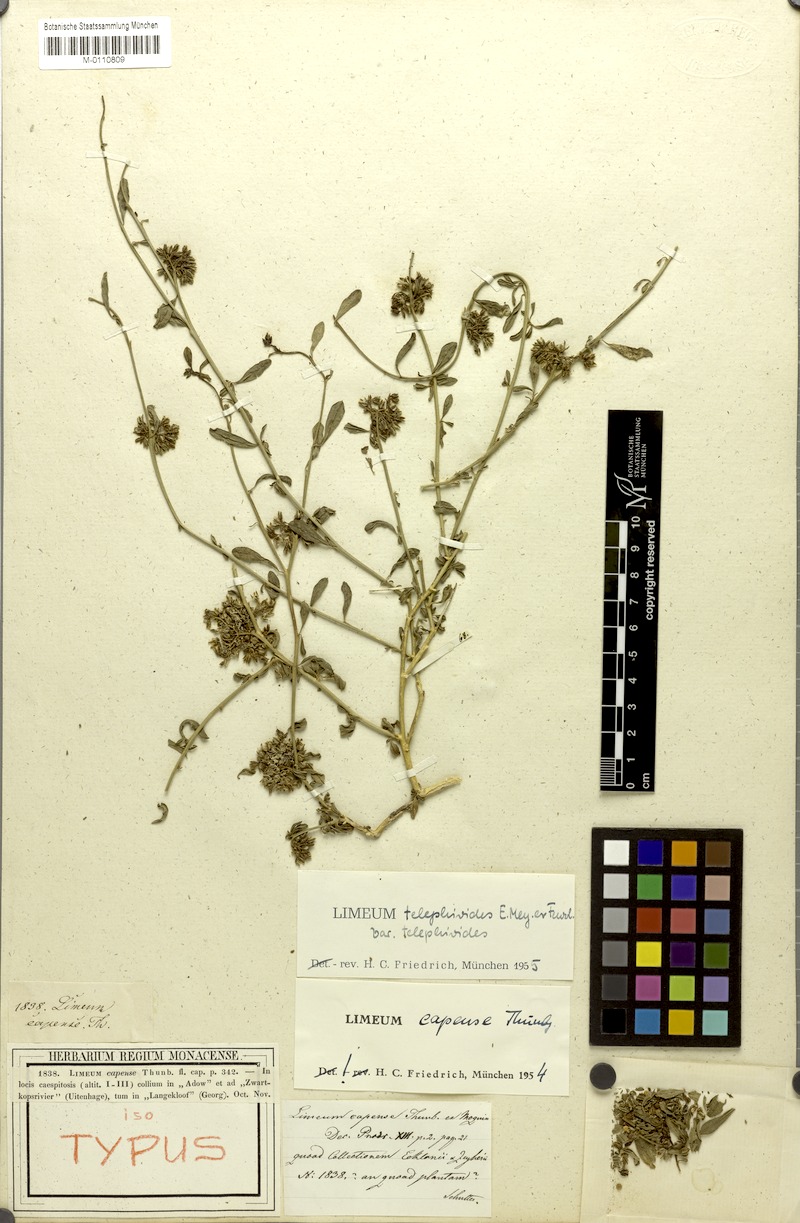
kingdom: Plantae
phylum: Tracheophyta
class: Magnoliopsida
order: Caryophyllales
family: Limeaceae
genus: Limeum
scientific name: Limeum telephioides
